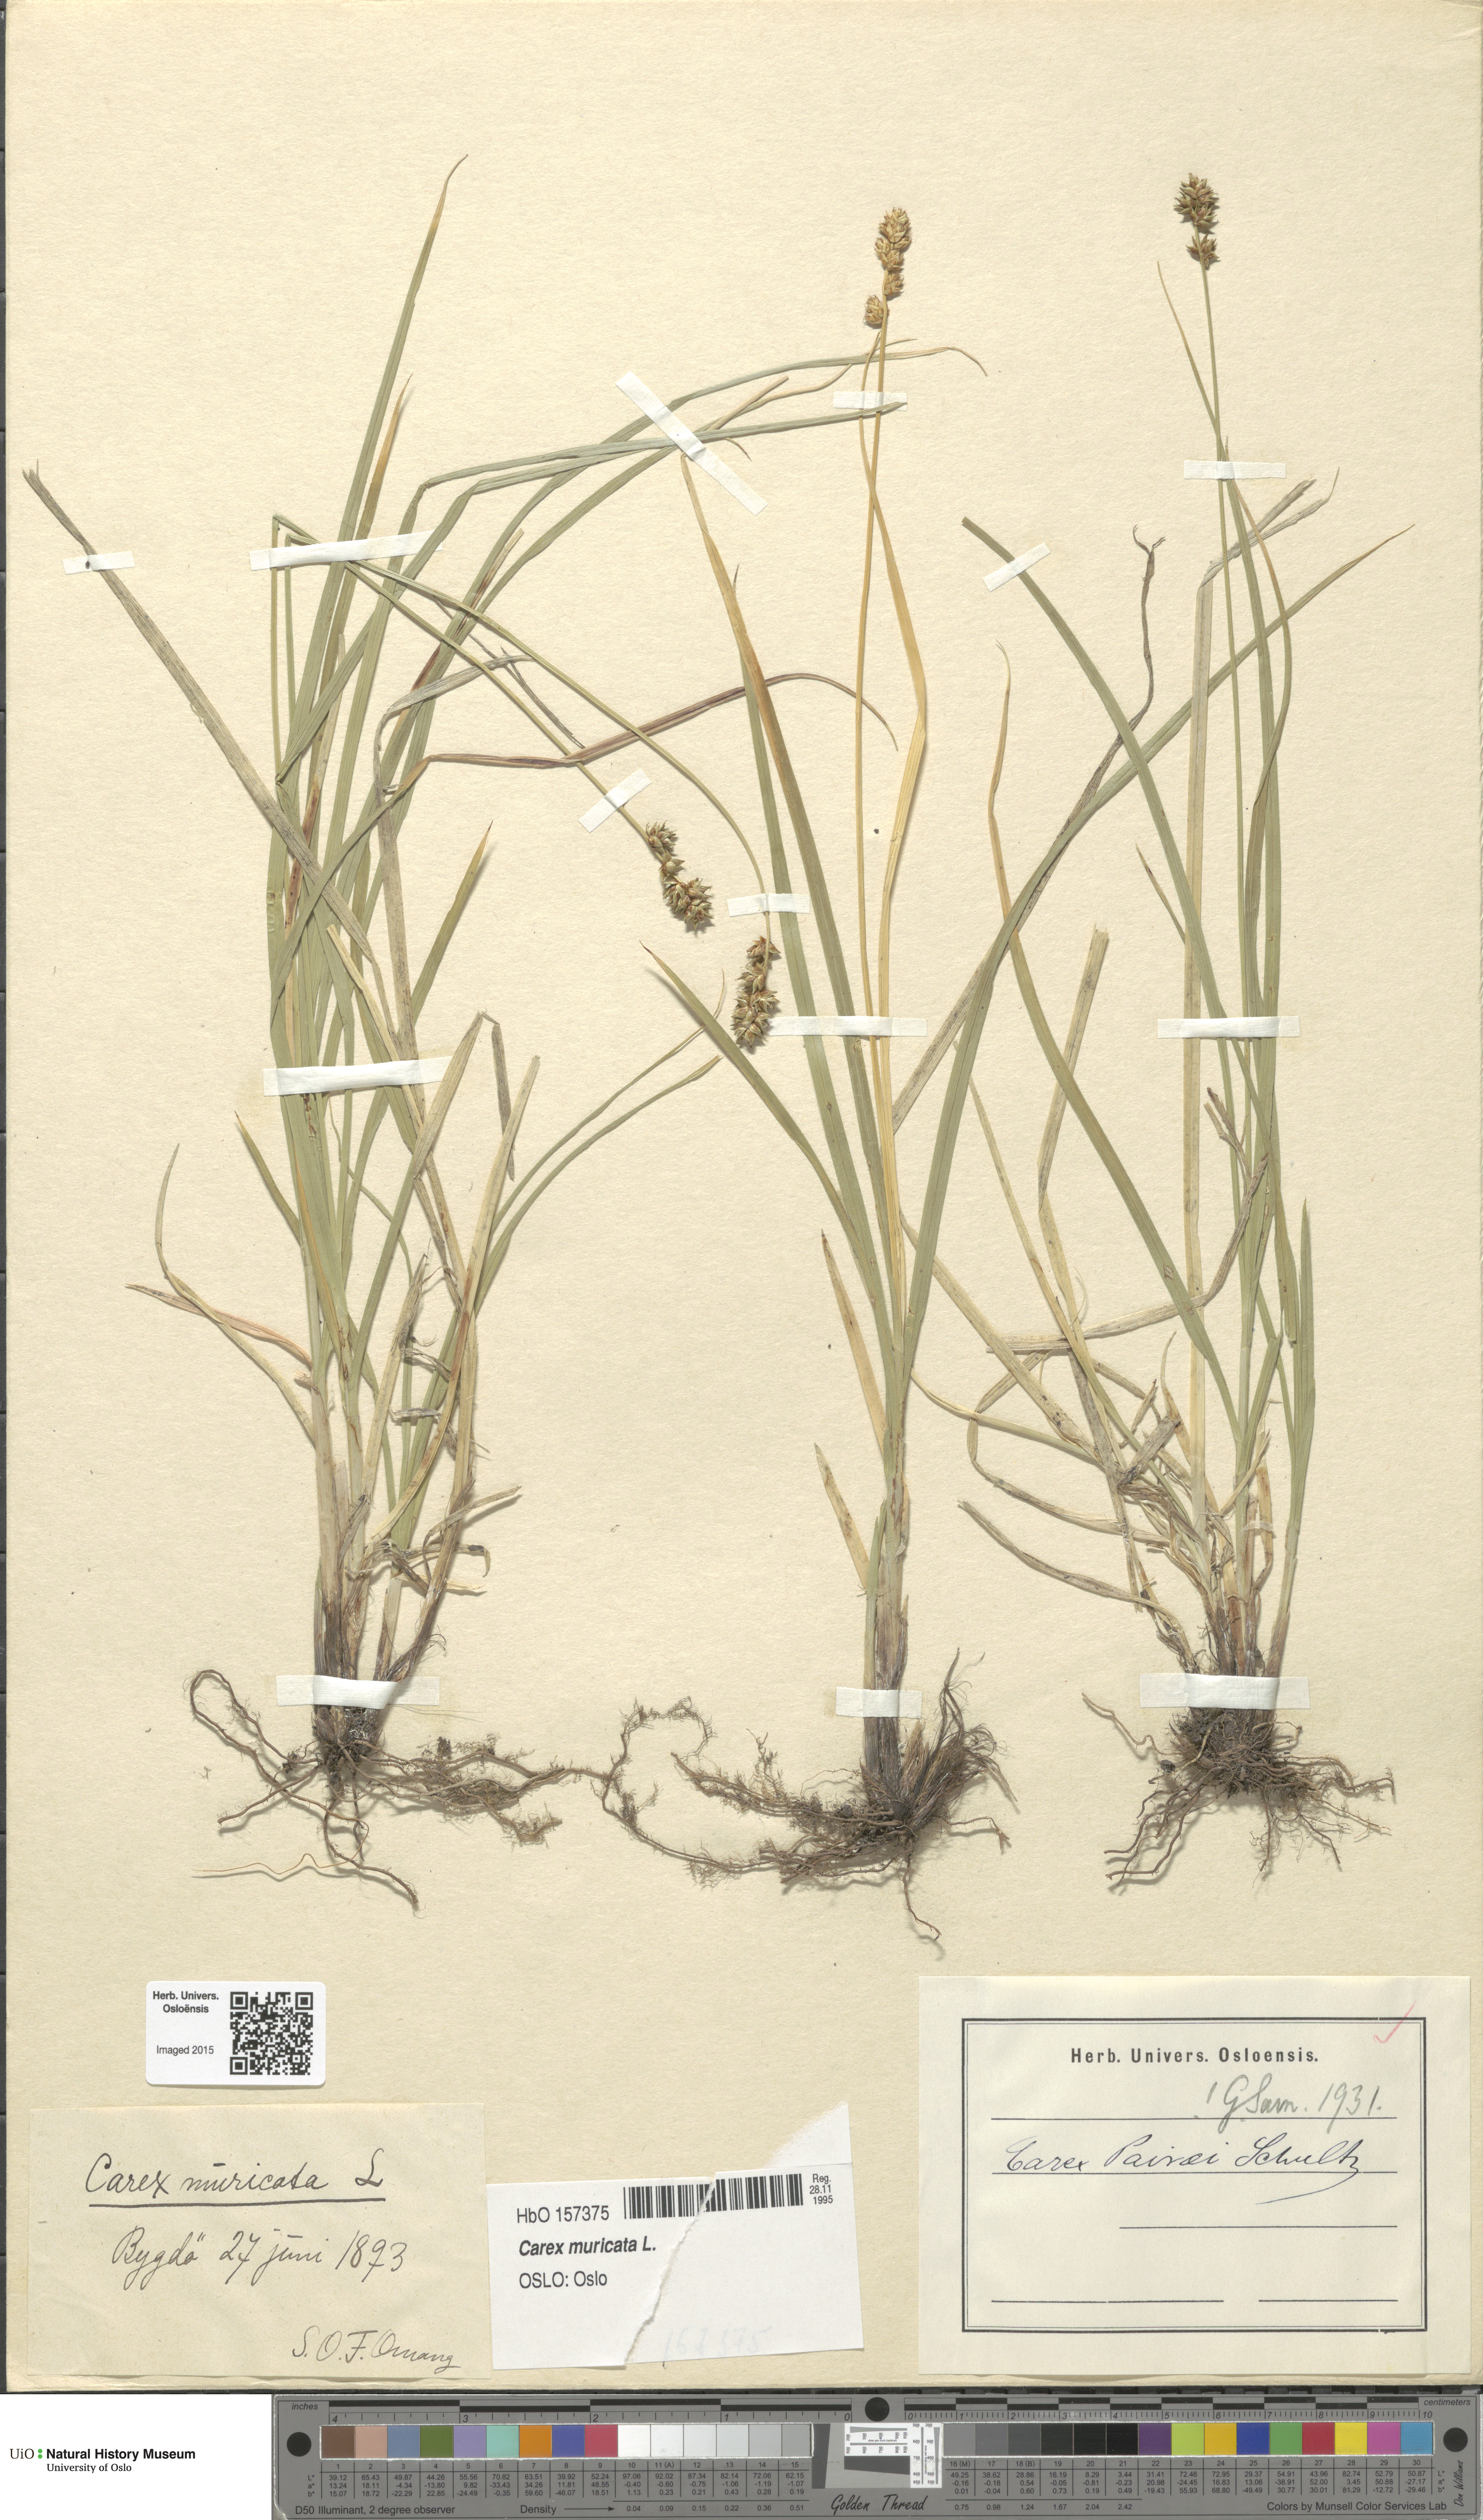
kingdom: Plantae
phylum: Tracheophyta
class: Liliopsida
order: Poales
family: Cyperaceae
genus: Carex
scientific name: Carex pairae
